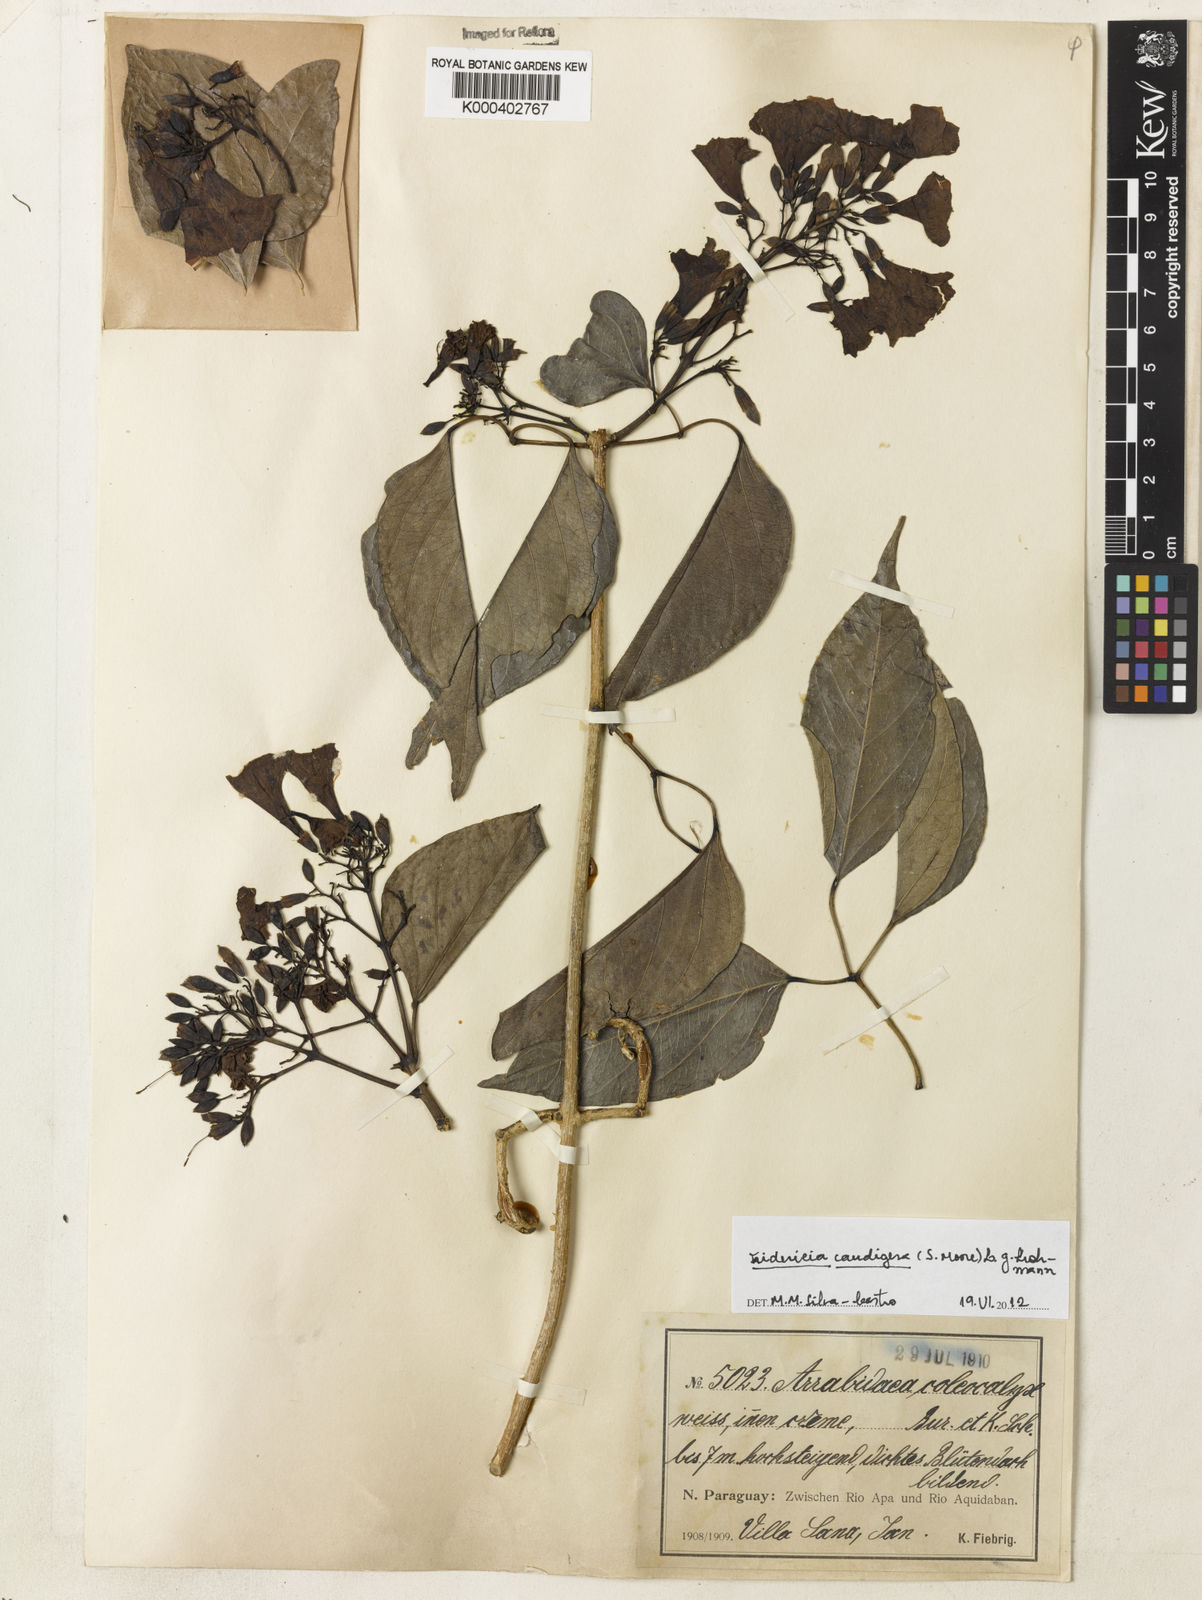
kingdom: Plantae
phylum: Tracheophyta
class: Magnoliopsida
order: Lamiales
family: Bignoniaceae
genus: Fridericia
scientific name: Fridericia caudigera
